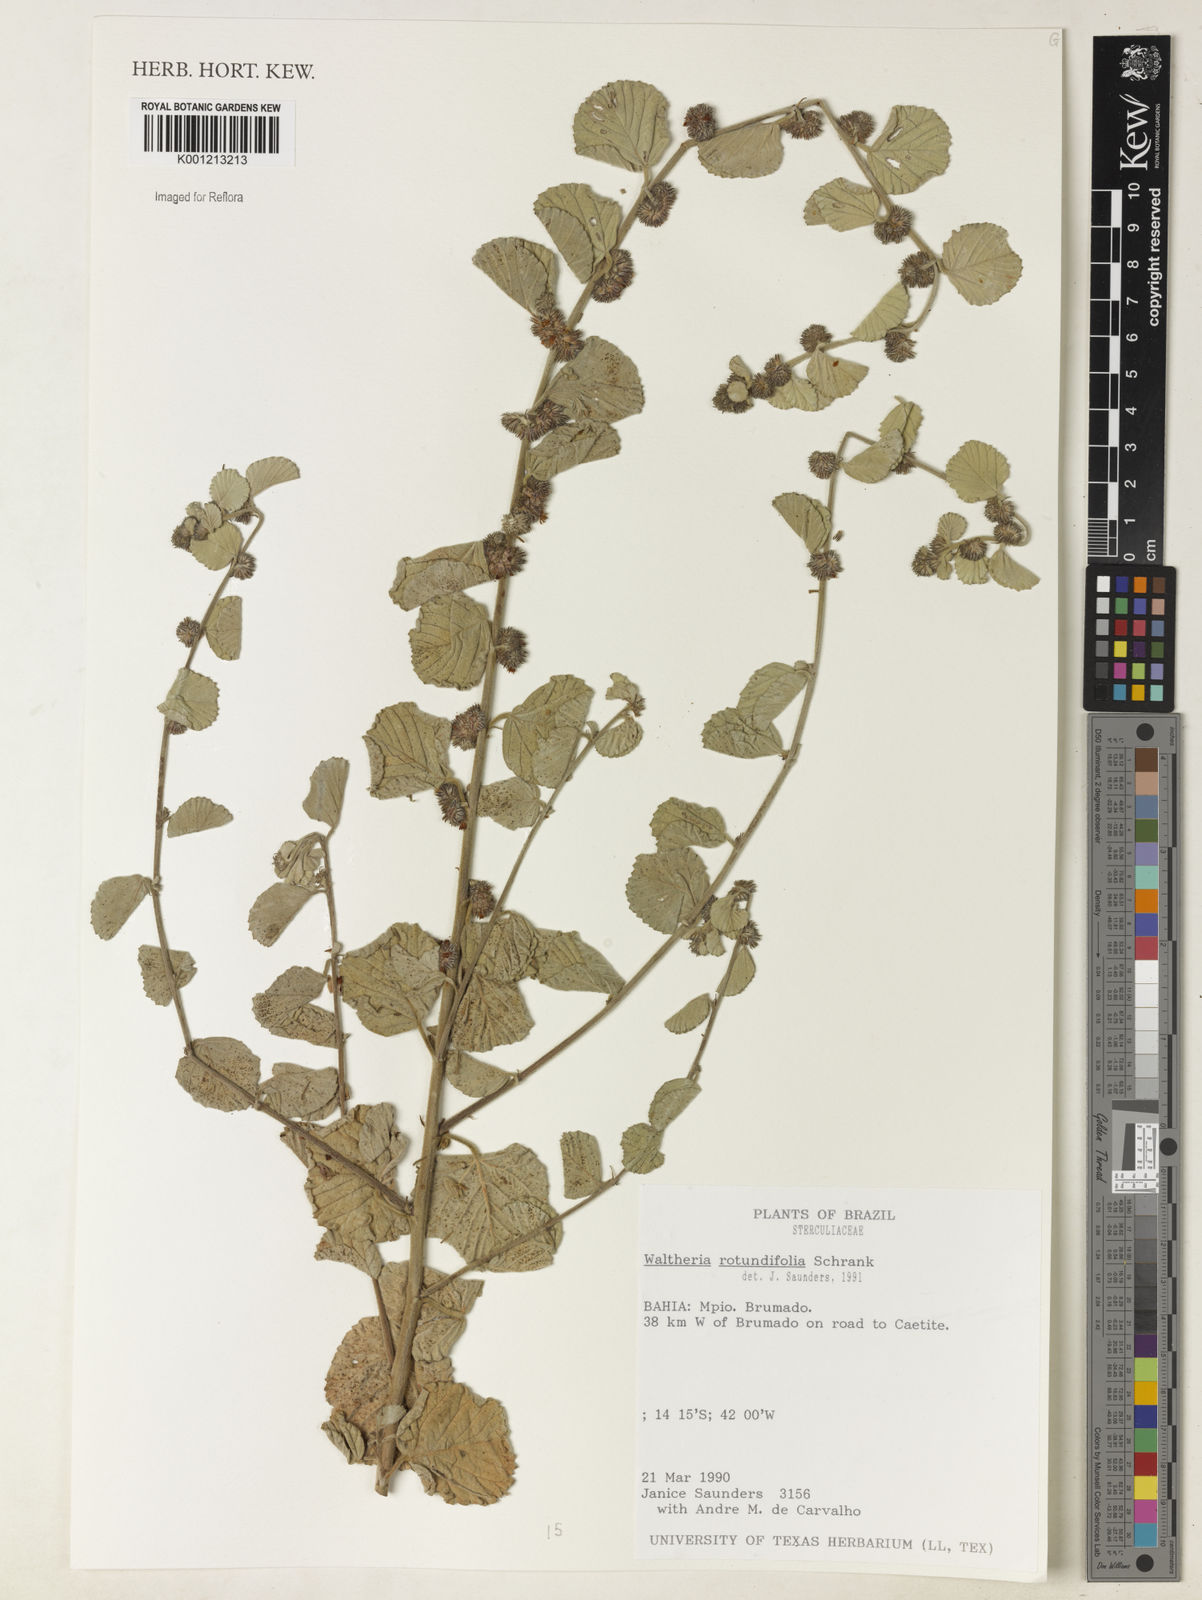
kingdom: Plantae
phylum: Tracheophyta
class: Magnoliopsida
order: Malvales
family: Malvaceae
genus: Waltheria
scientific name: Waltheria rotundifolia
